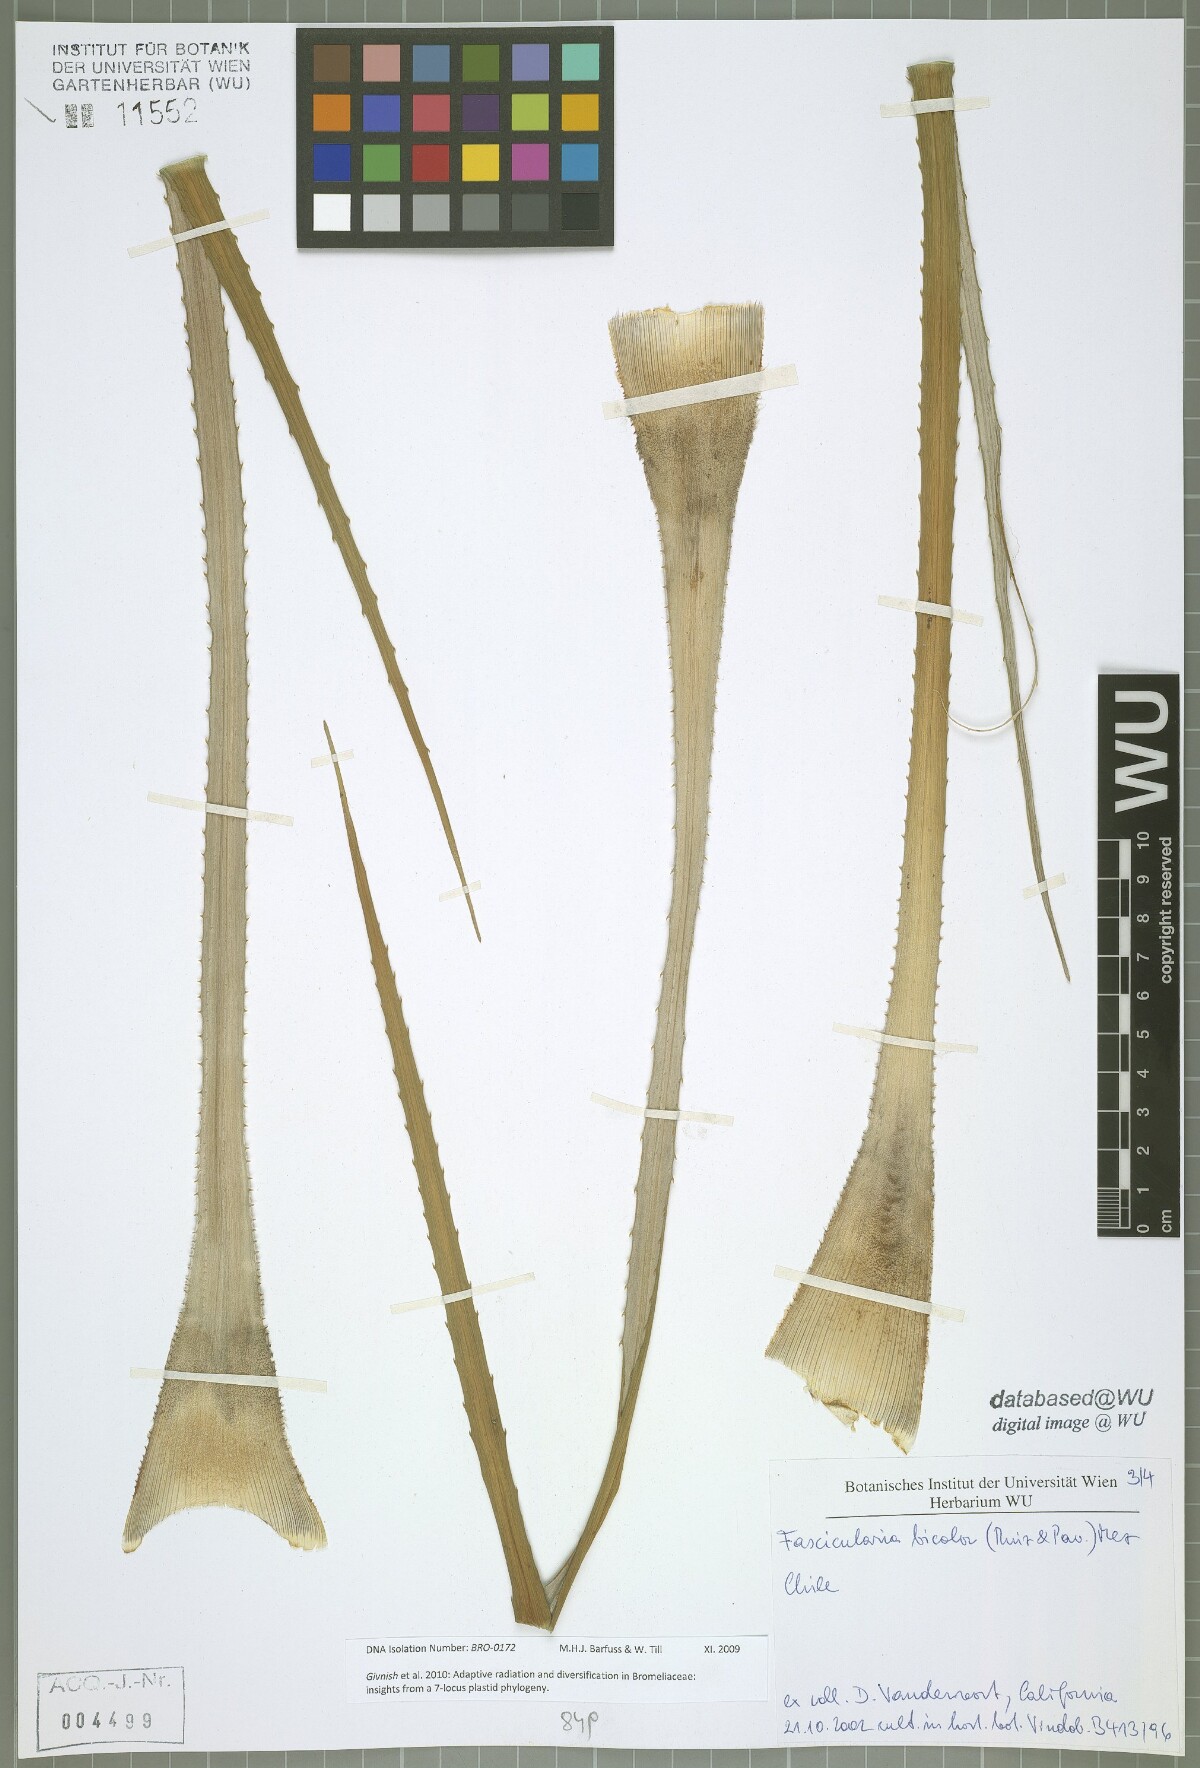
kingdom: Plantae
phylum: Tracheophyta
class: Liliopsida
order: Poales
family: Bromeliaceae
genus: Fascicularia
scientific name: Fascicularia bicolor
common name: Rhodostachys
